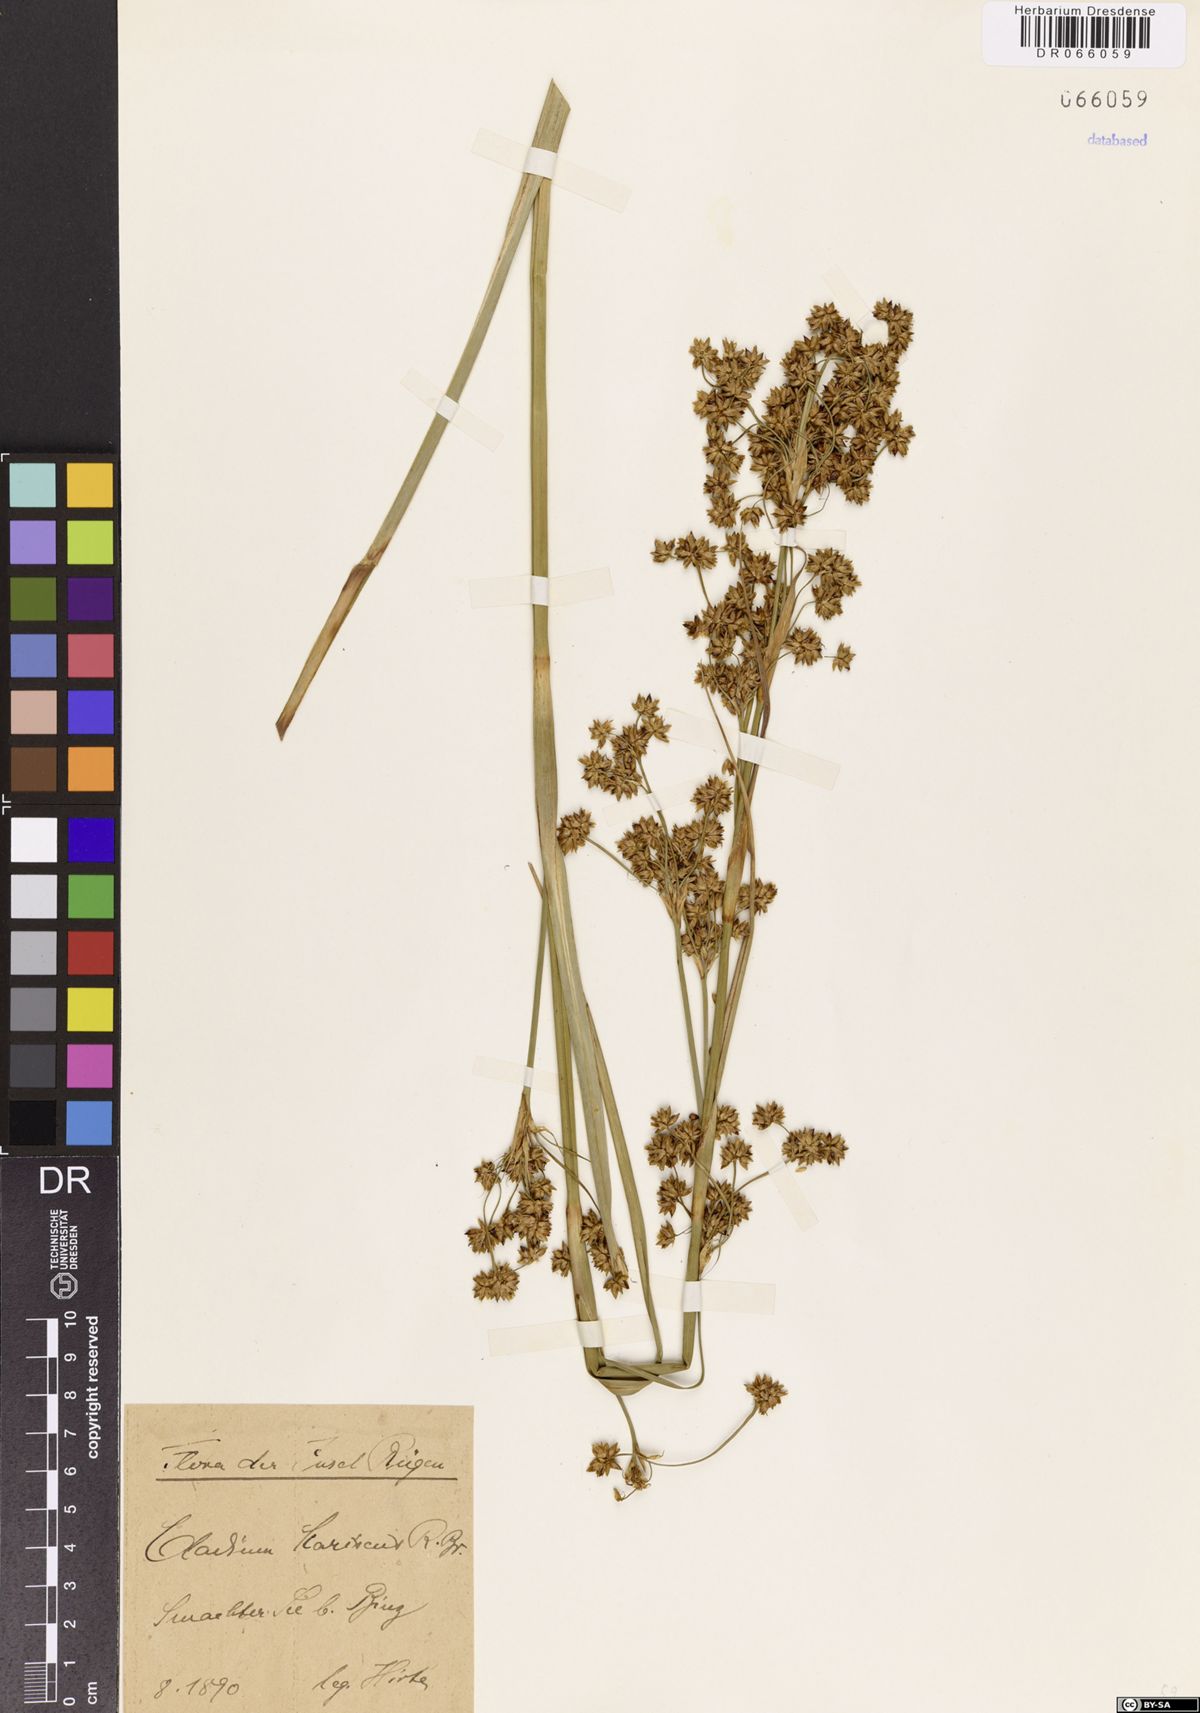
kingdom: Plantae
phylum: Tracheophyta
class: Liliopsida
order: Poales
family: Cyperaceae
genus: Cladium
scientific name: Cladium mariscus
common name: Great fen-sedge
